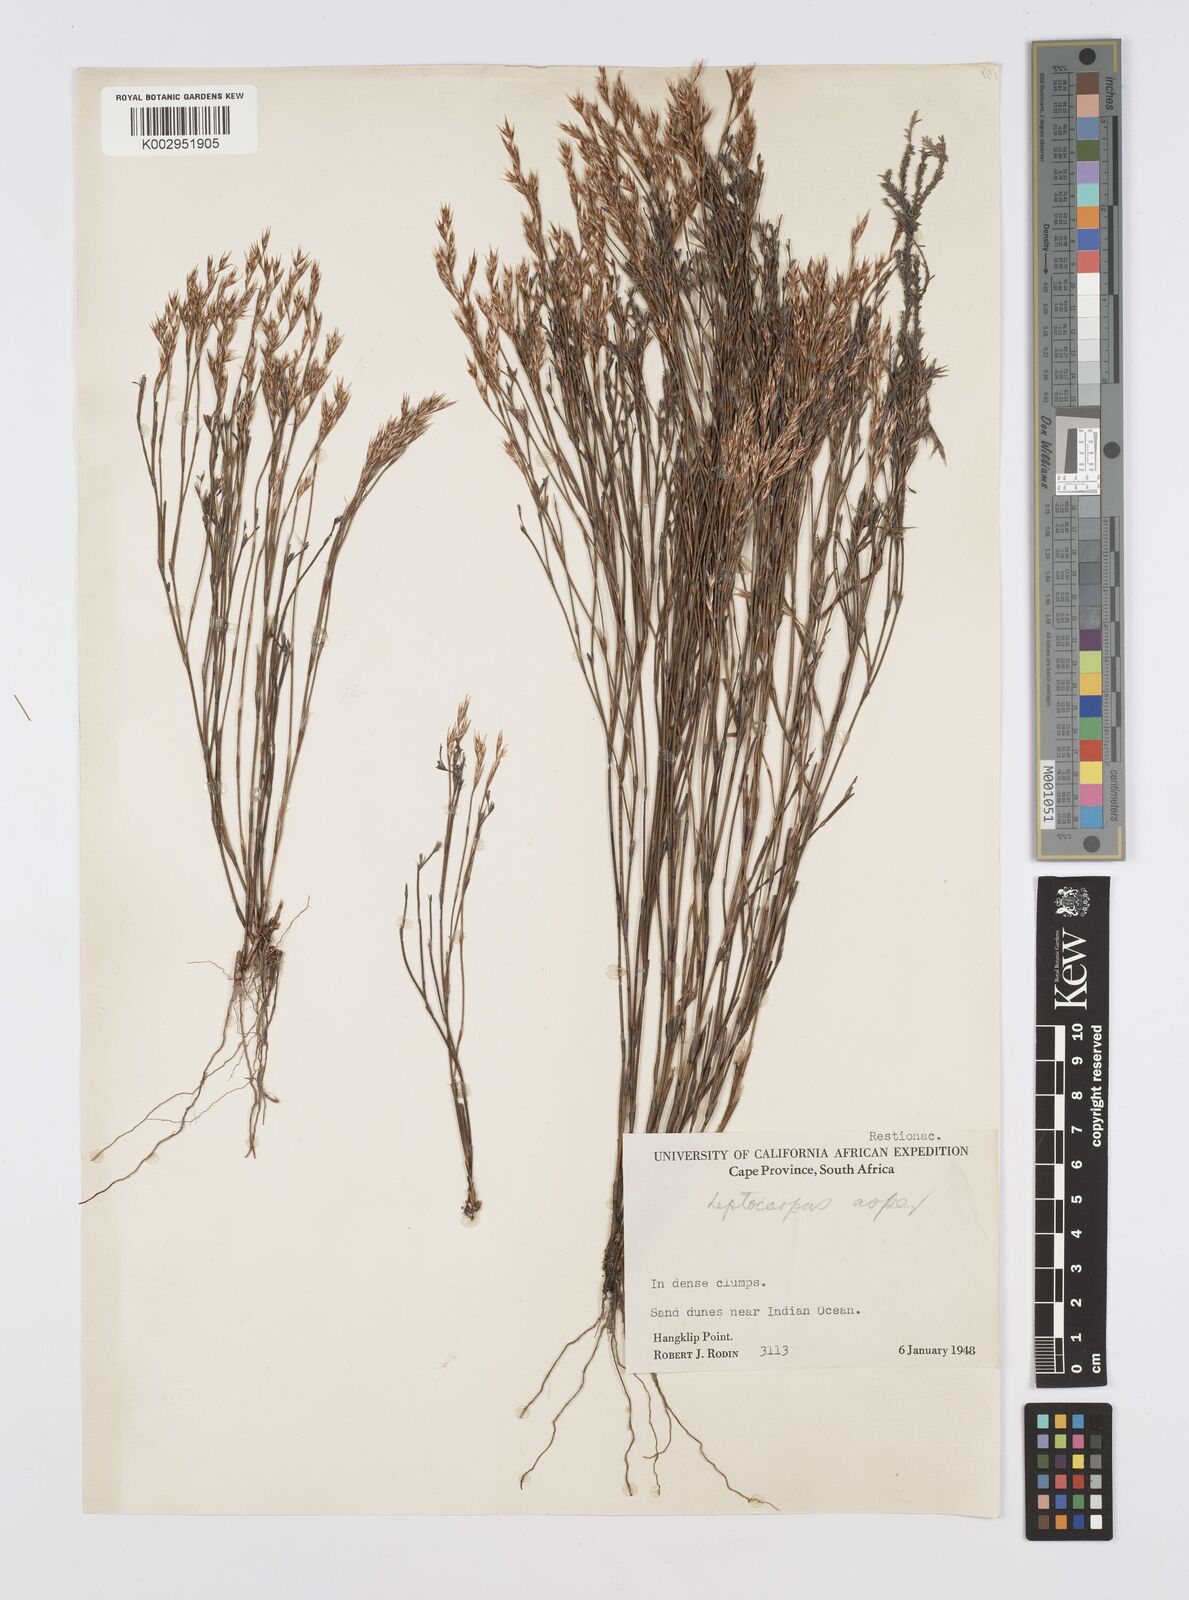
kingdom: Plantae
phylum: Tracheophyta
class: Liliopsida
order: Poales
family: Restionaceae
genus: Restio
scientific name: Restio asperus
